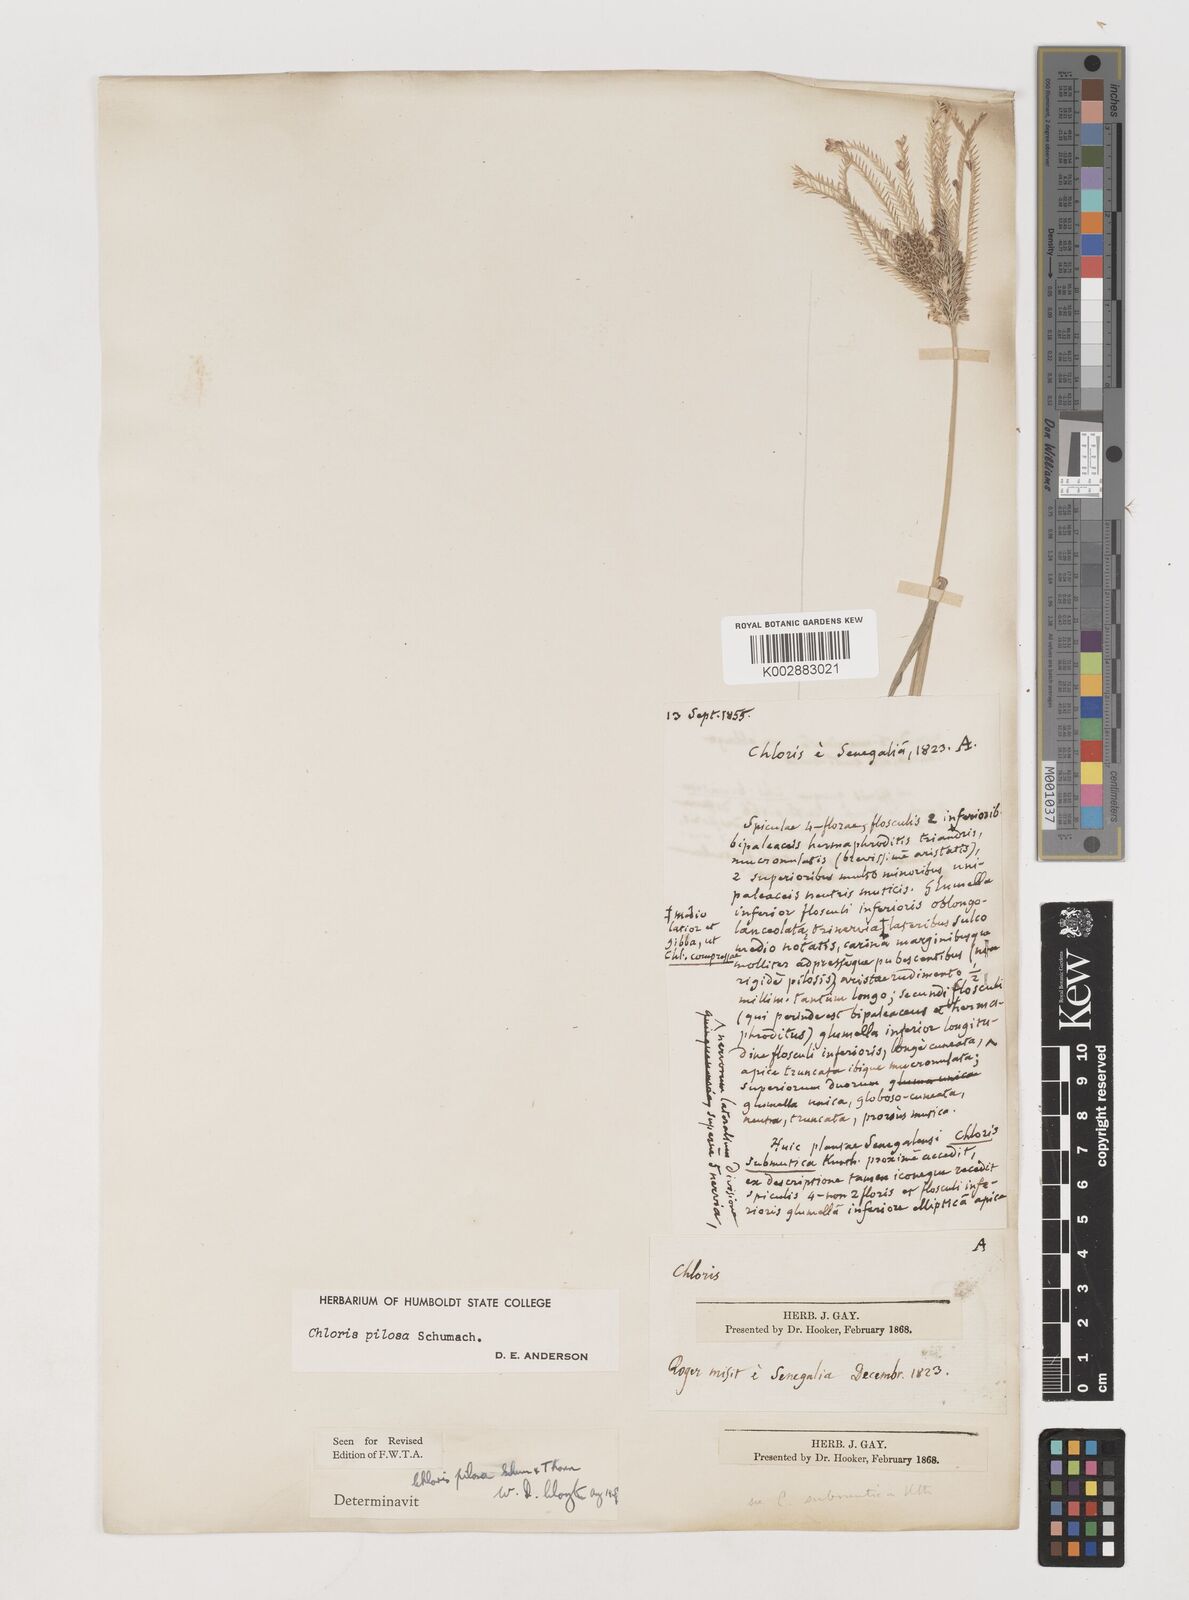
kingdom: Plantae
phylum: Tracheophyta
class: Liliopsida
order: Poales
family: Poaceae
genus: Chloris
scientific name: Chloris pilosa
